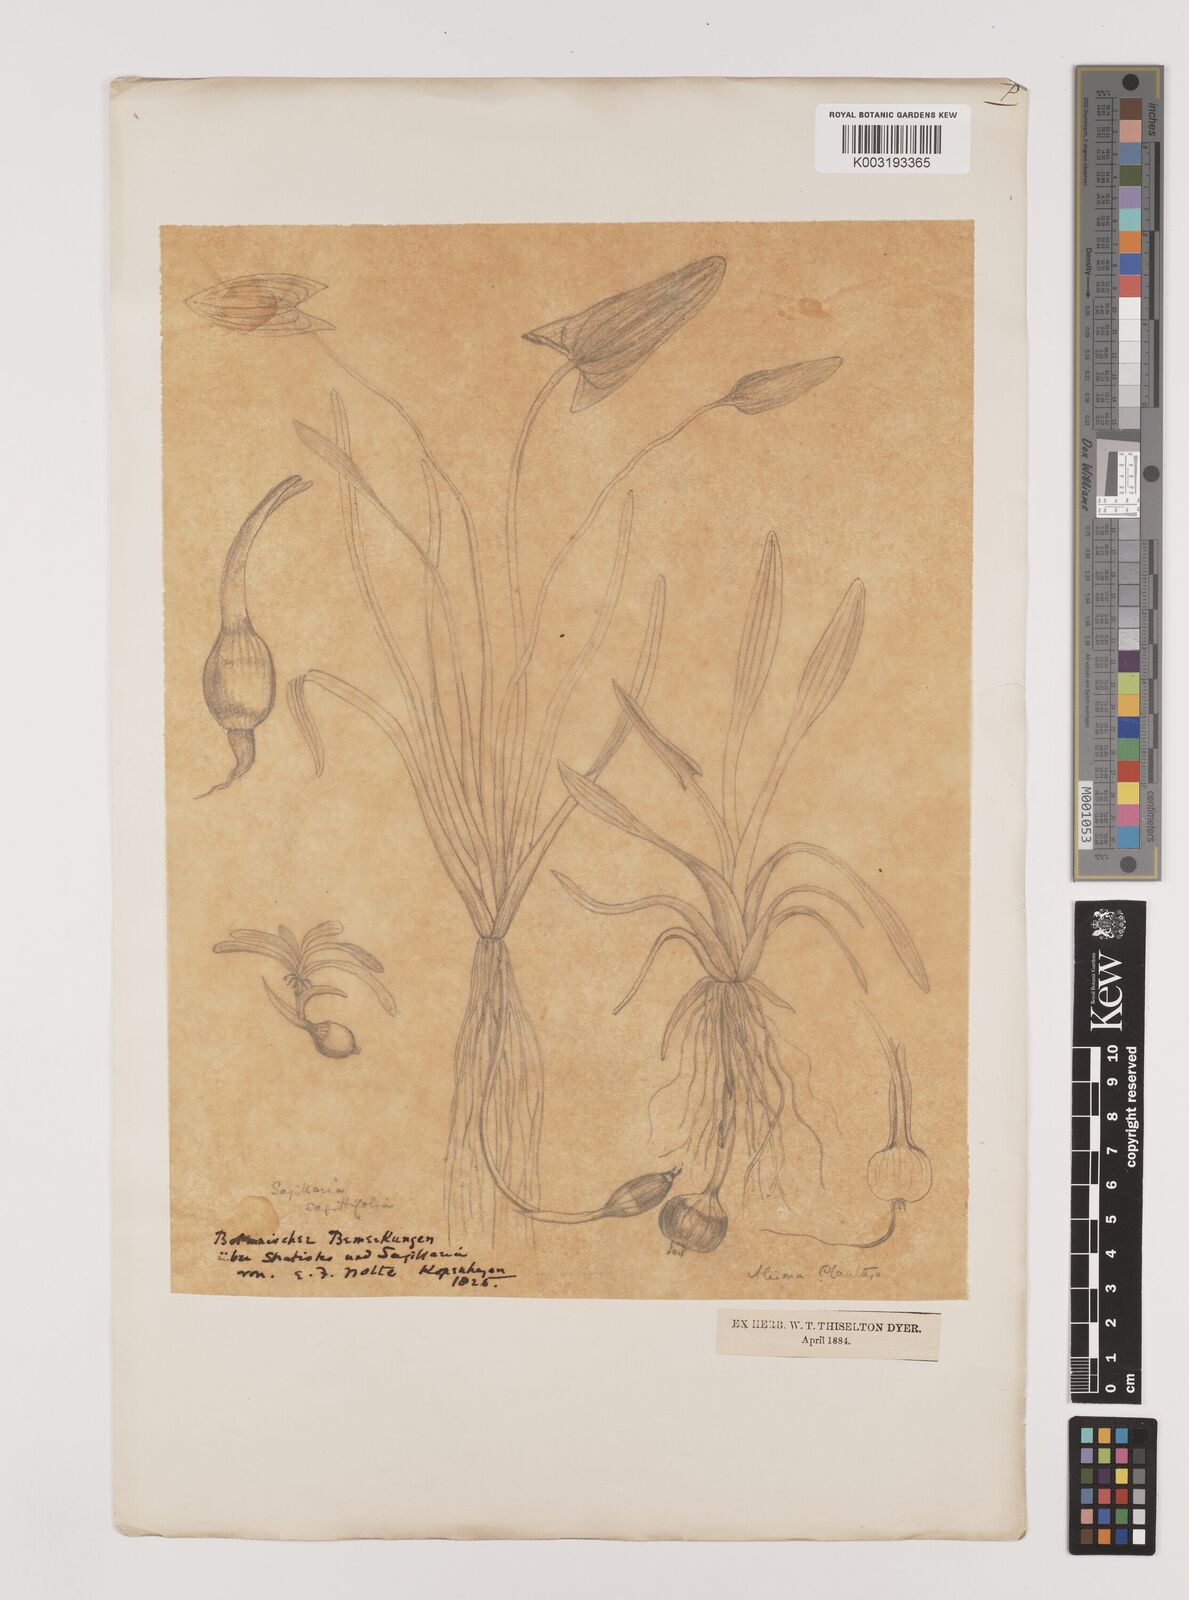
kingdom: Plantae
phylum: Tracheophyta
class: Liliopsida
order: Alismatales
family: Alismataceae
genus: Sagittaria
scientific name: Sagittaria sagittifolia
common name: Arrowhead
